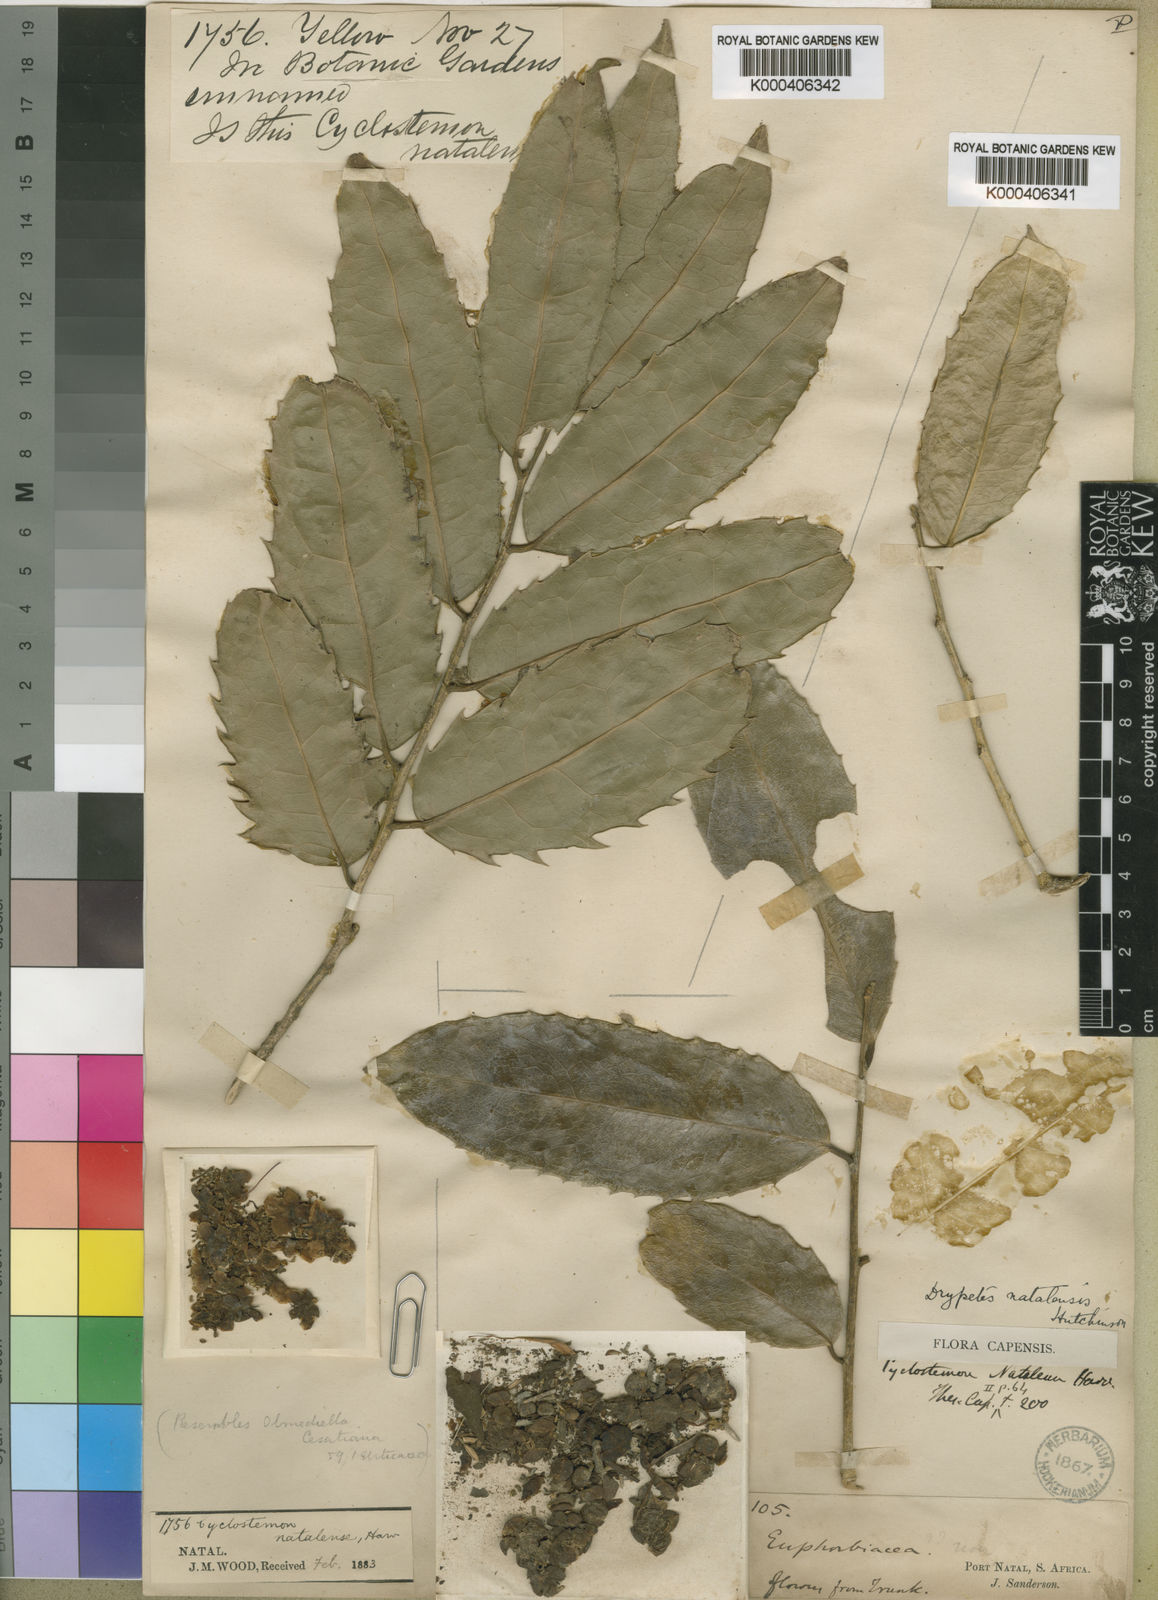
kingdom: Plantae
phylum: Tracheophyta
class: Magnoliopsida
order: Malpighiales
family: Putranjivaceae
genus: Drypetes
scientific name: Drypetes natalensis
